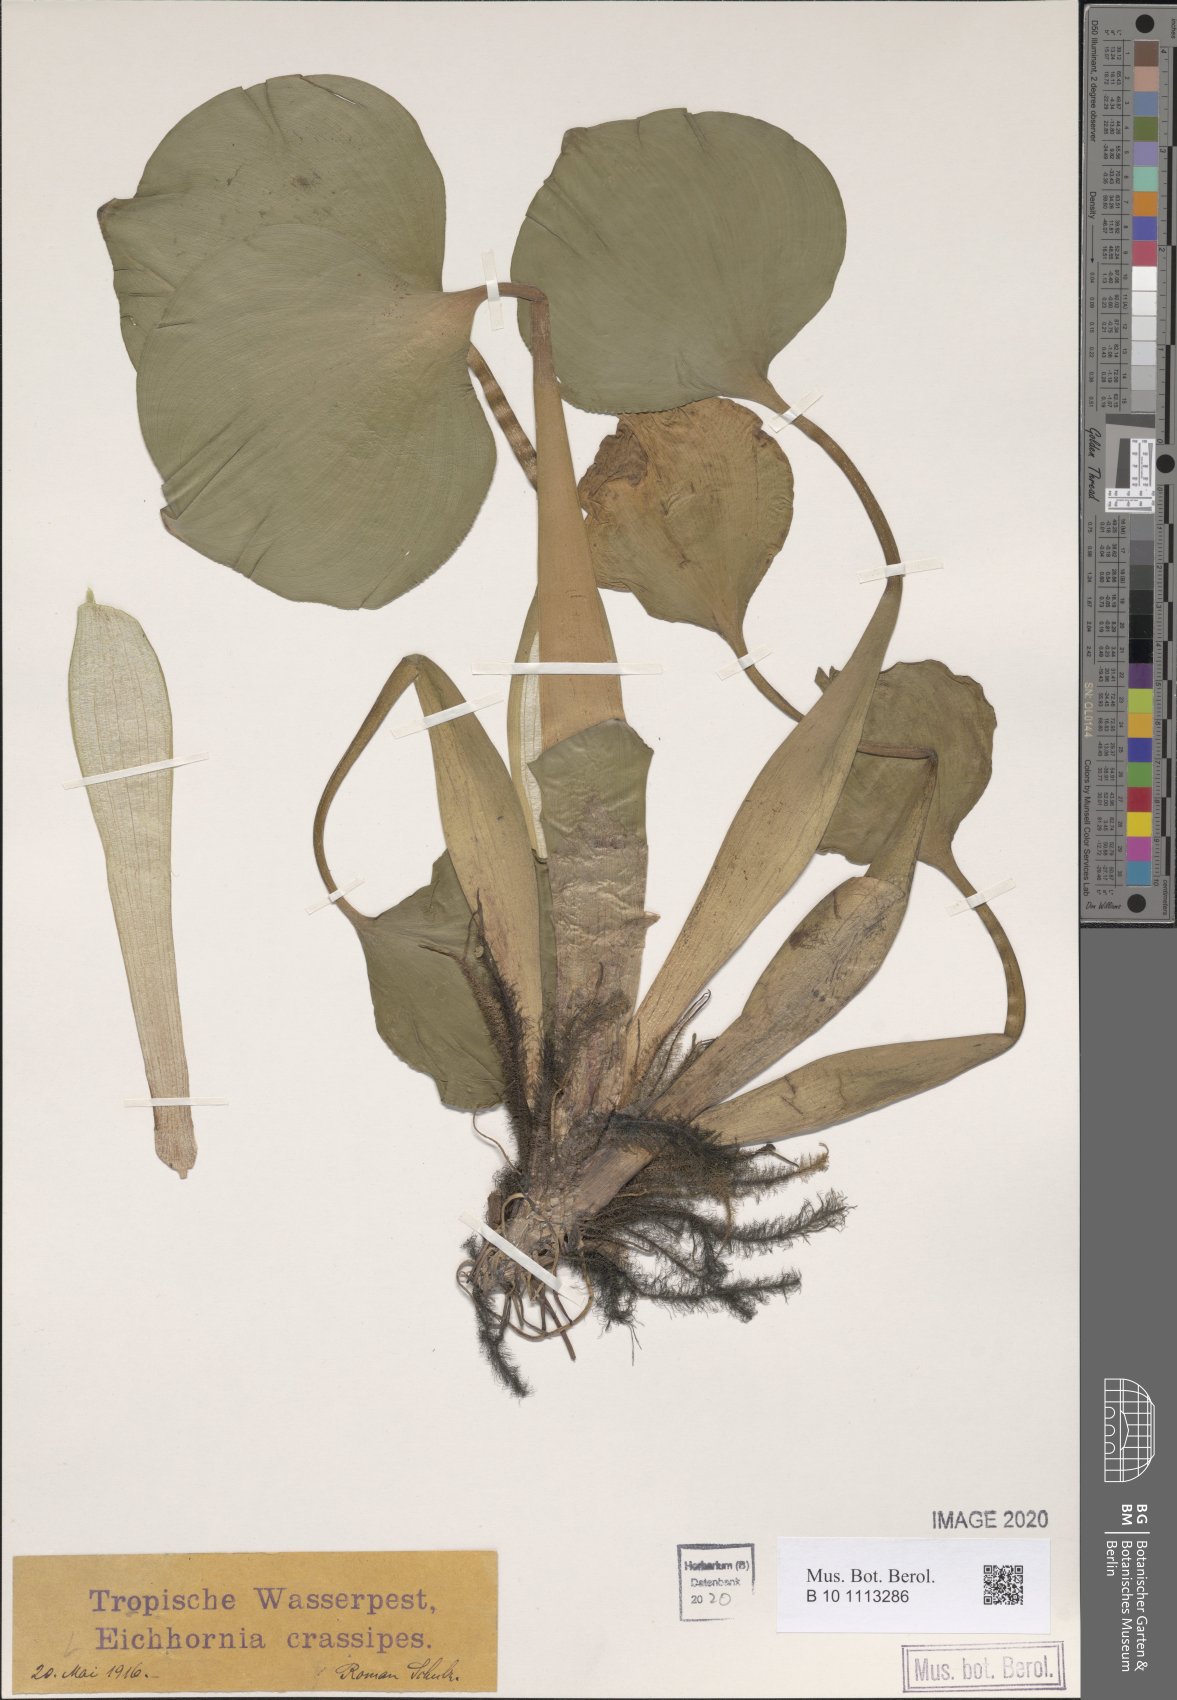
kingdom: Plantae
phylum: Tracheophyta
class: Liliopsida
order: Commelinales
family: Pontederiaceae
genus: Pontederia
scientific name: Pontederia crassipes
